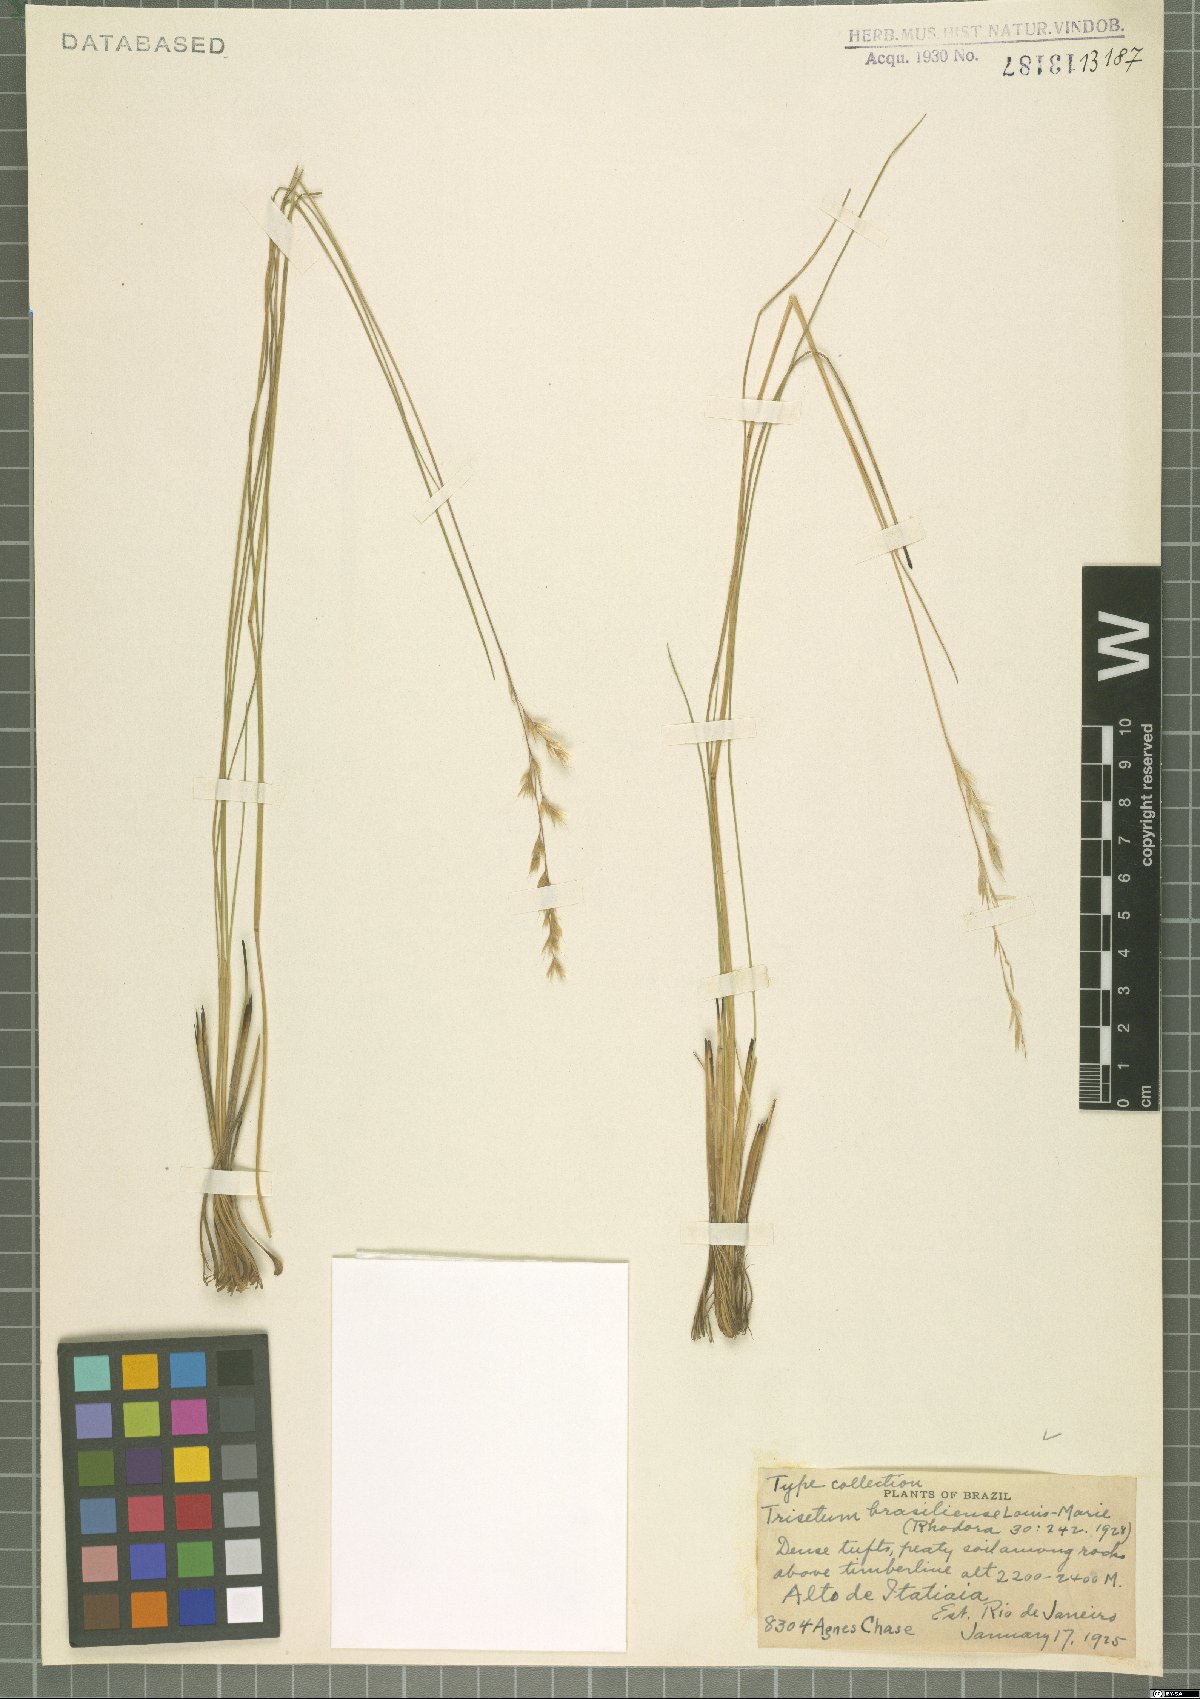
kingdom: Plantae
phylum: Tracheophyta
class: Liliopsida
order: Poales
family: Poaceae
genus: Trisetum
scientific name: Trisetum brasiliense
